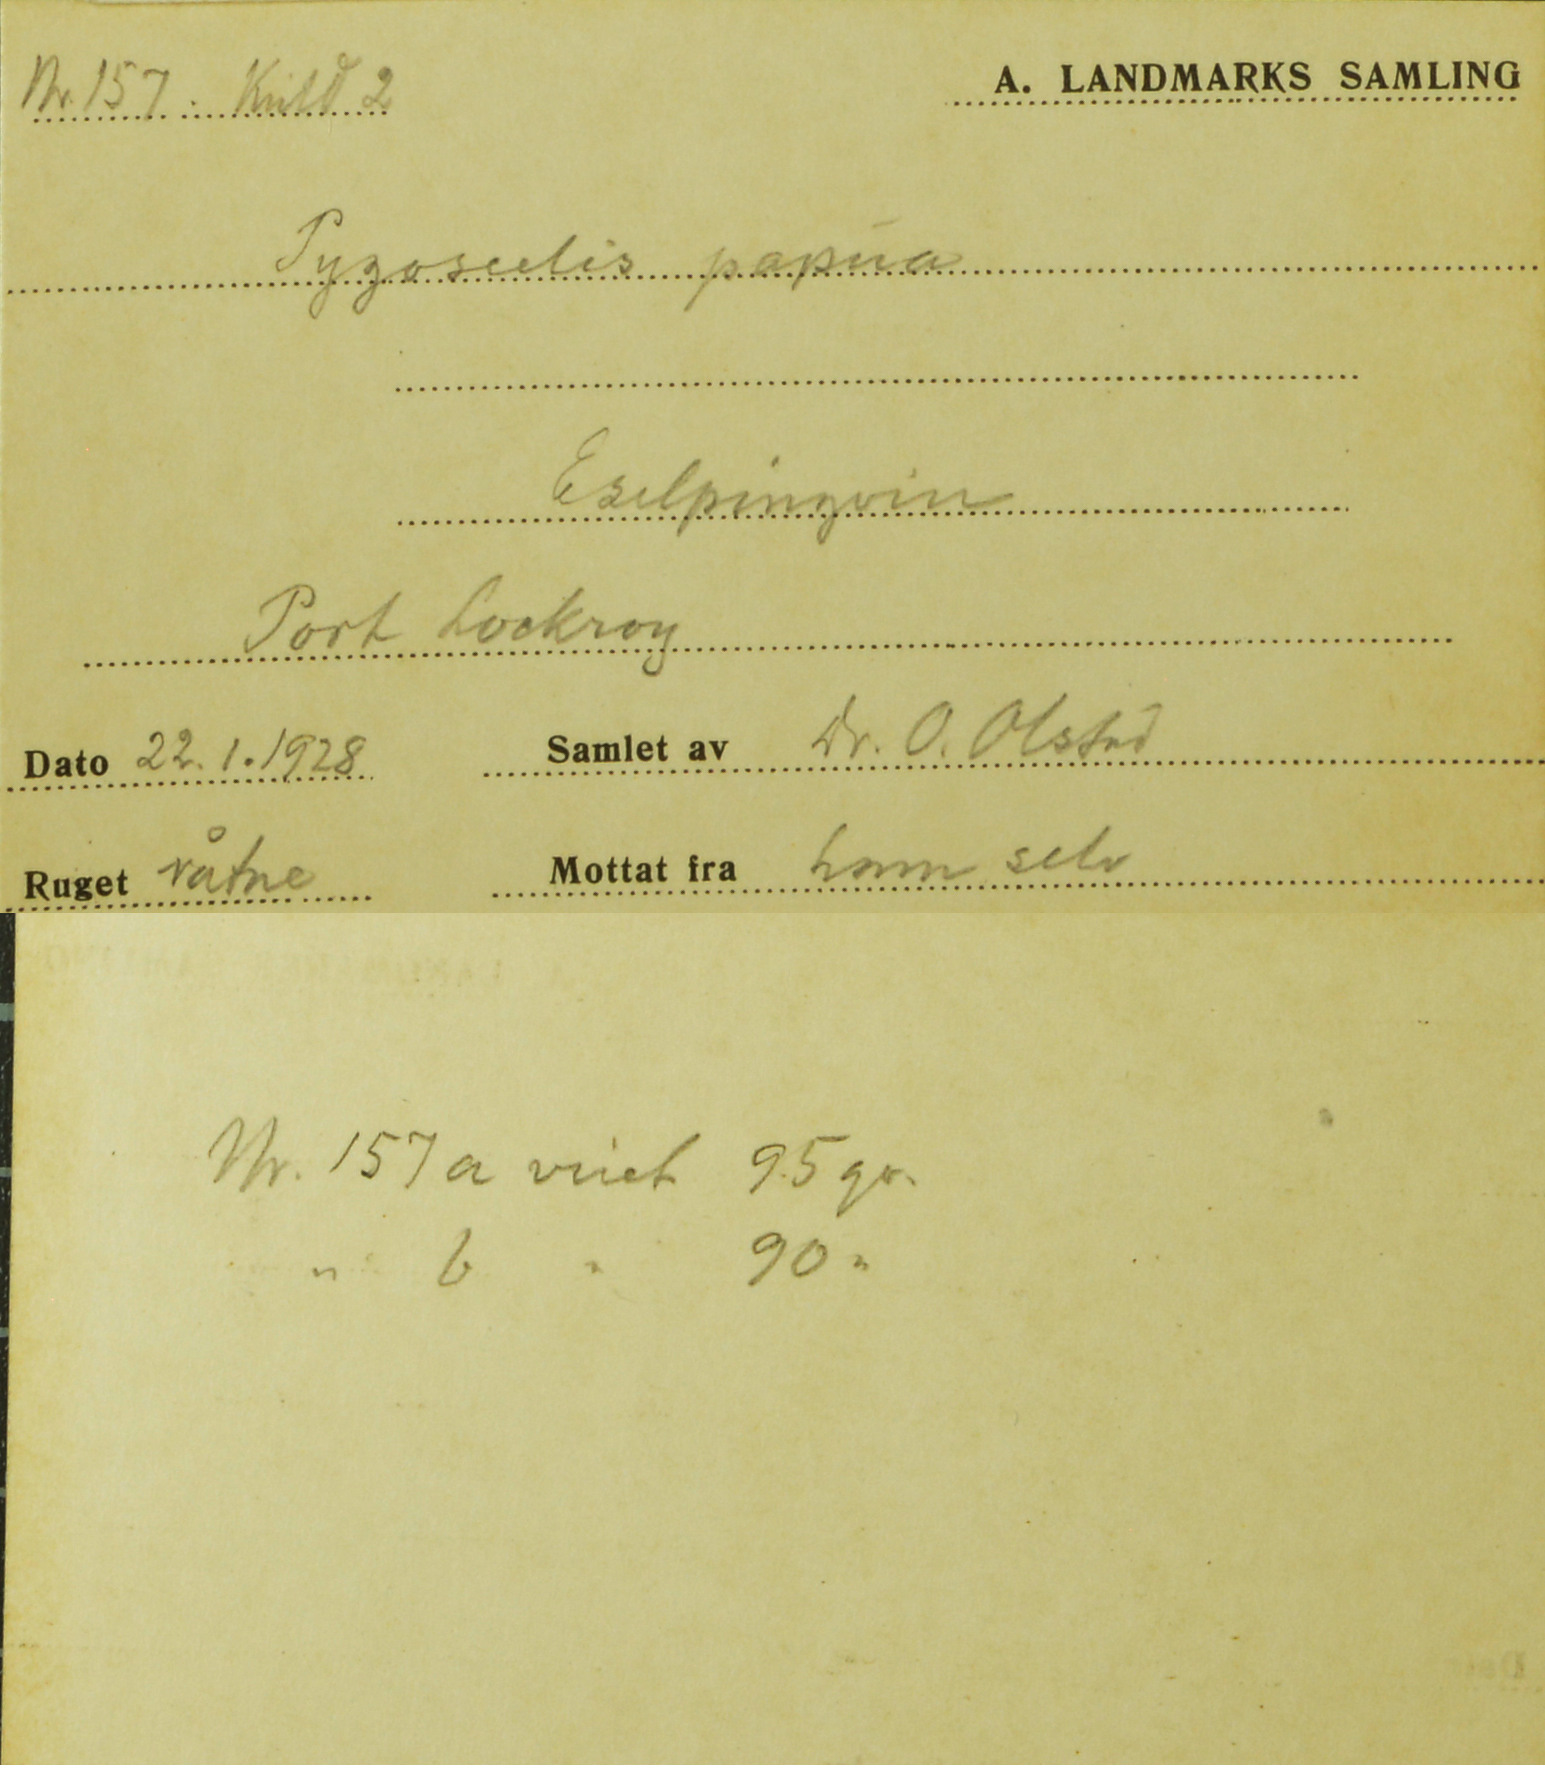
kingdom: Animalia
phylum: Chordata
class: Aves
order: Sphenisciformes
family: Spheniscidae
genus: Pygoscelis
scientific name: Pygoscelis papua
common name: Gentoo penguin
